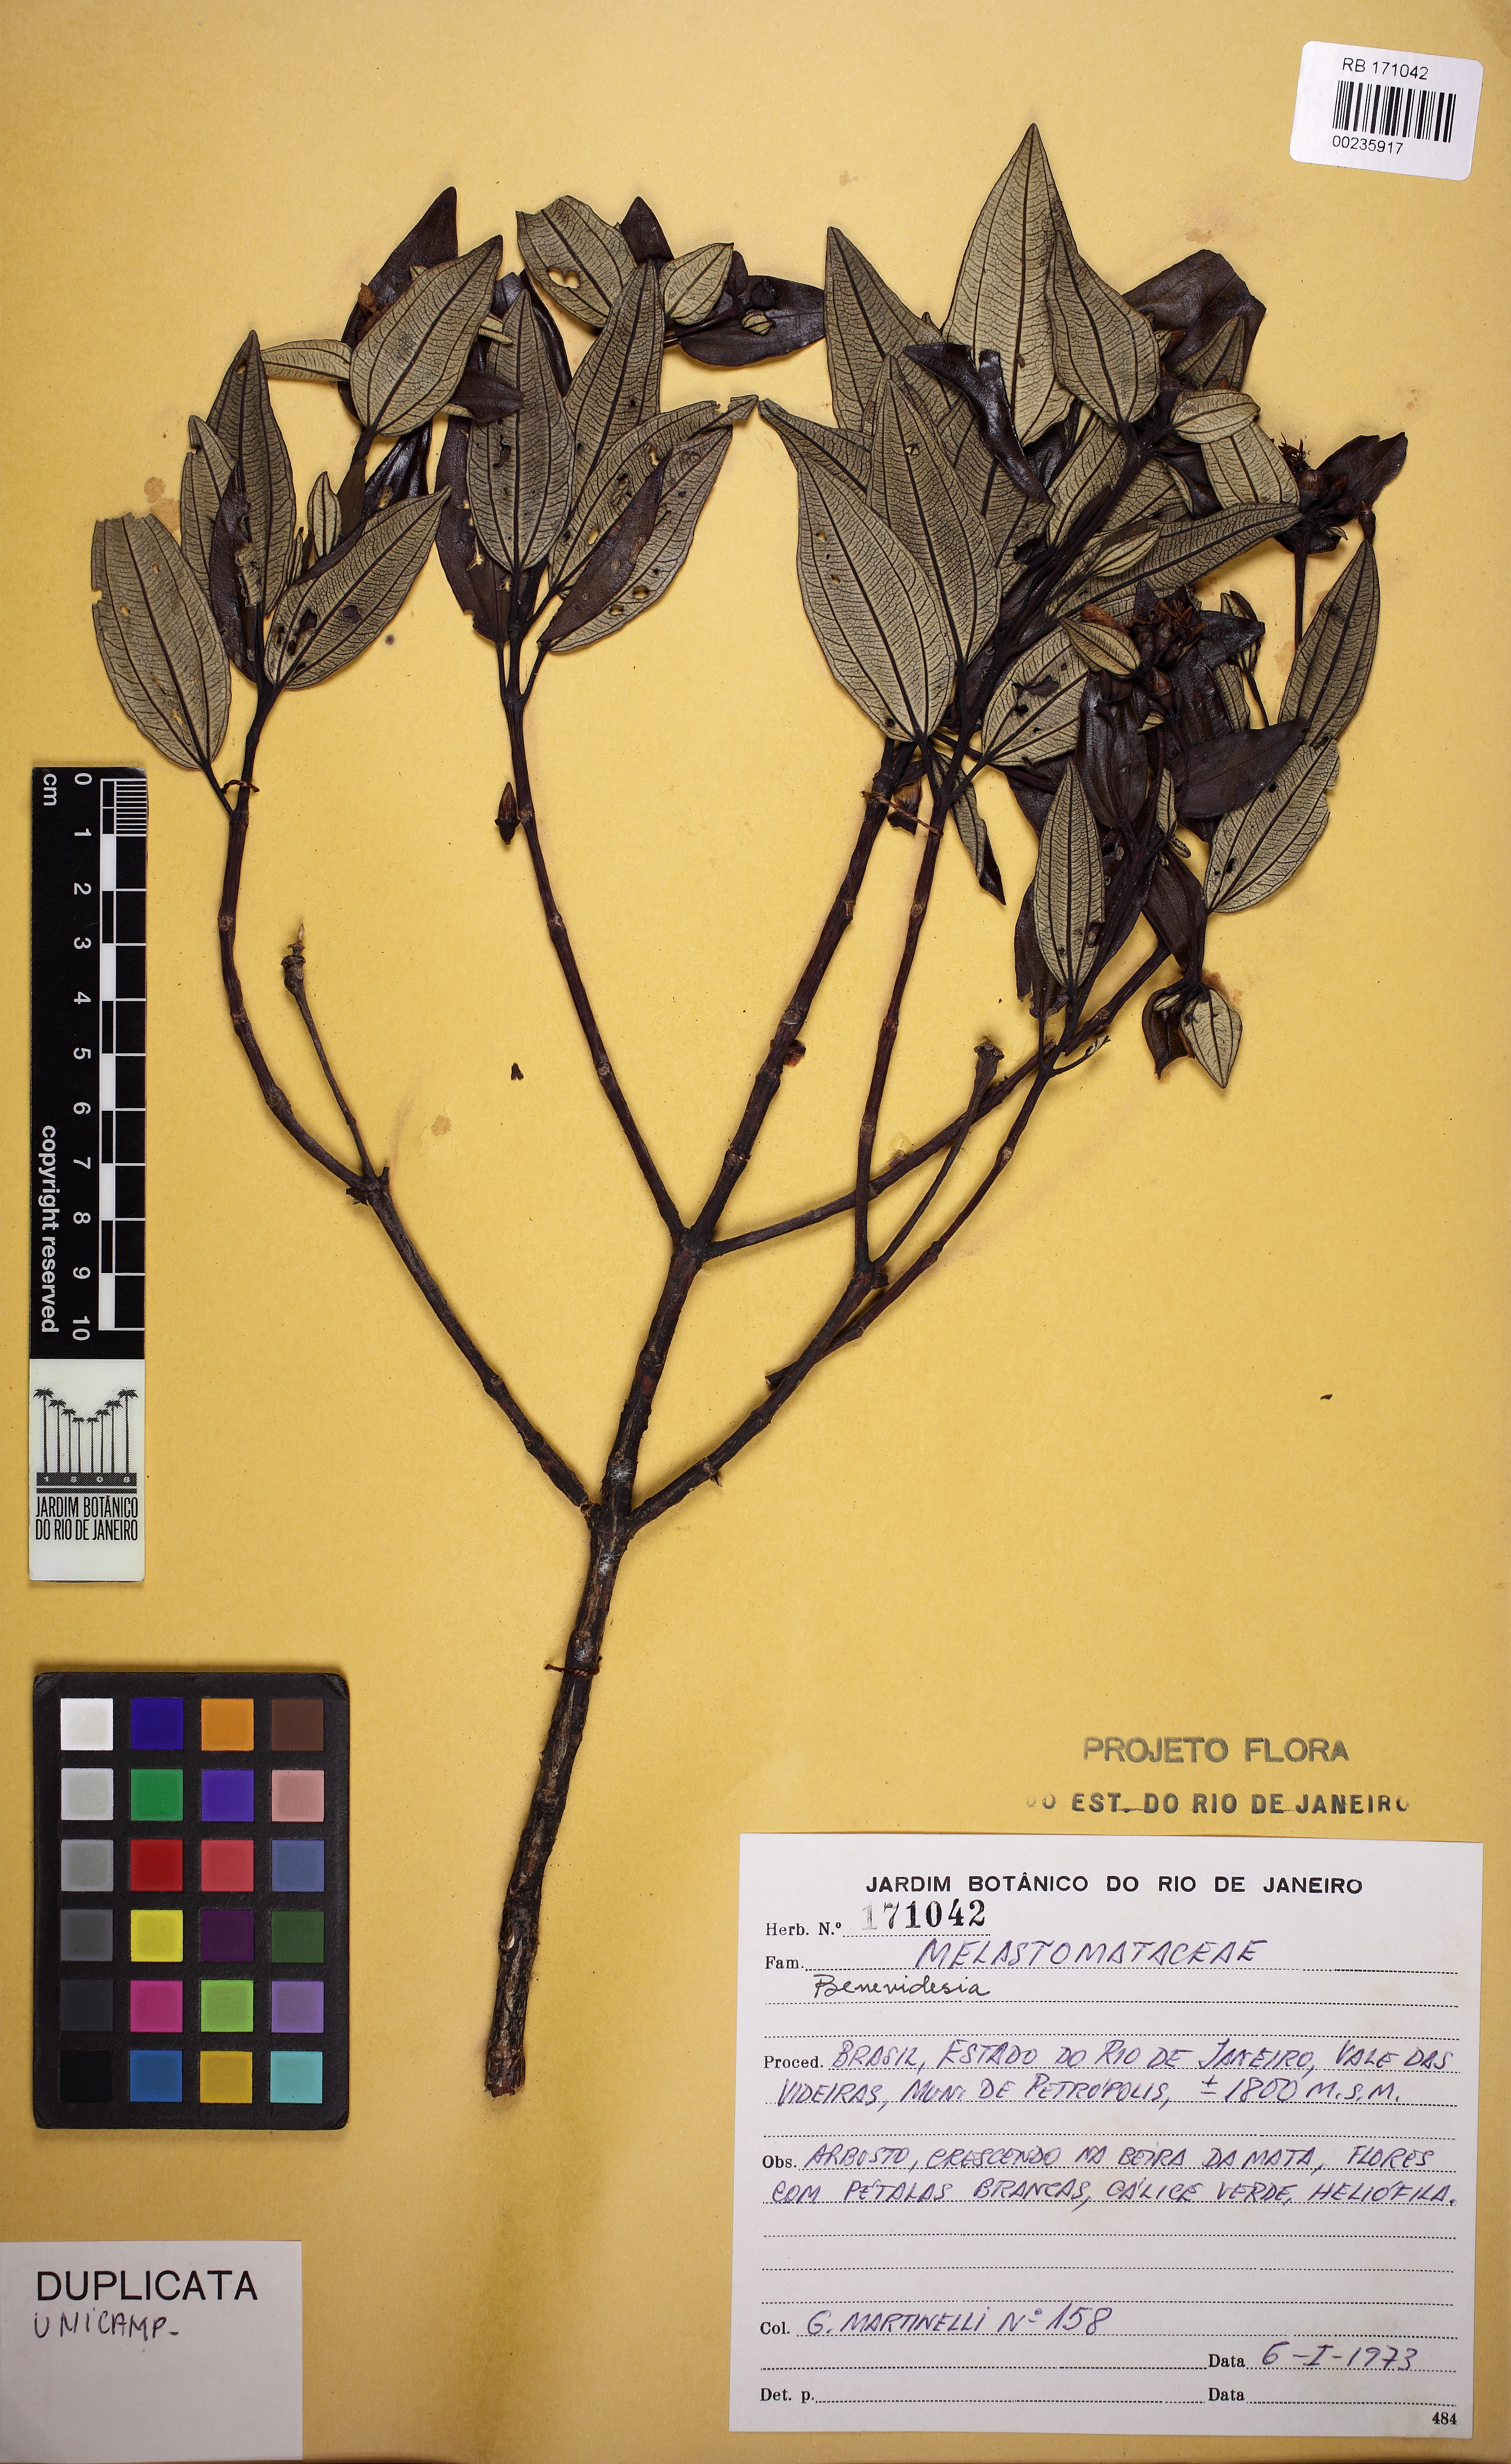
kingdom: Plantae
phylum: Tracheophyta
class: Magnoliopsida
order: Myrtales
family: Melastomataceae
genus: Huberia
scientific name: Huberia organensis
